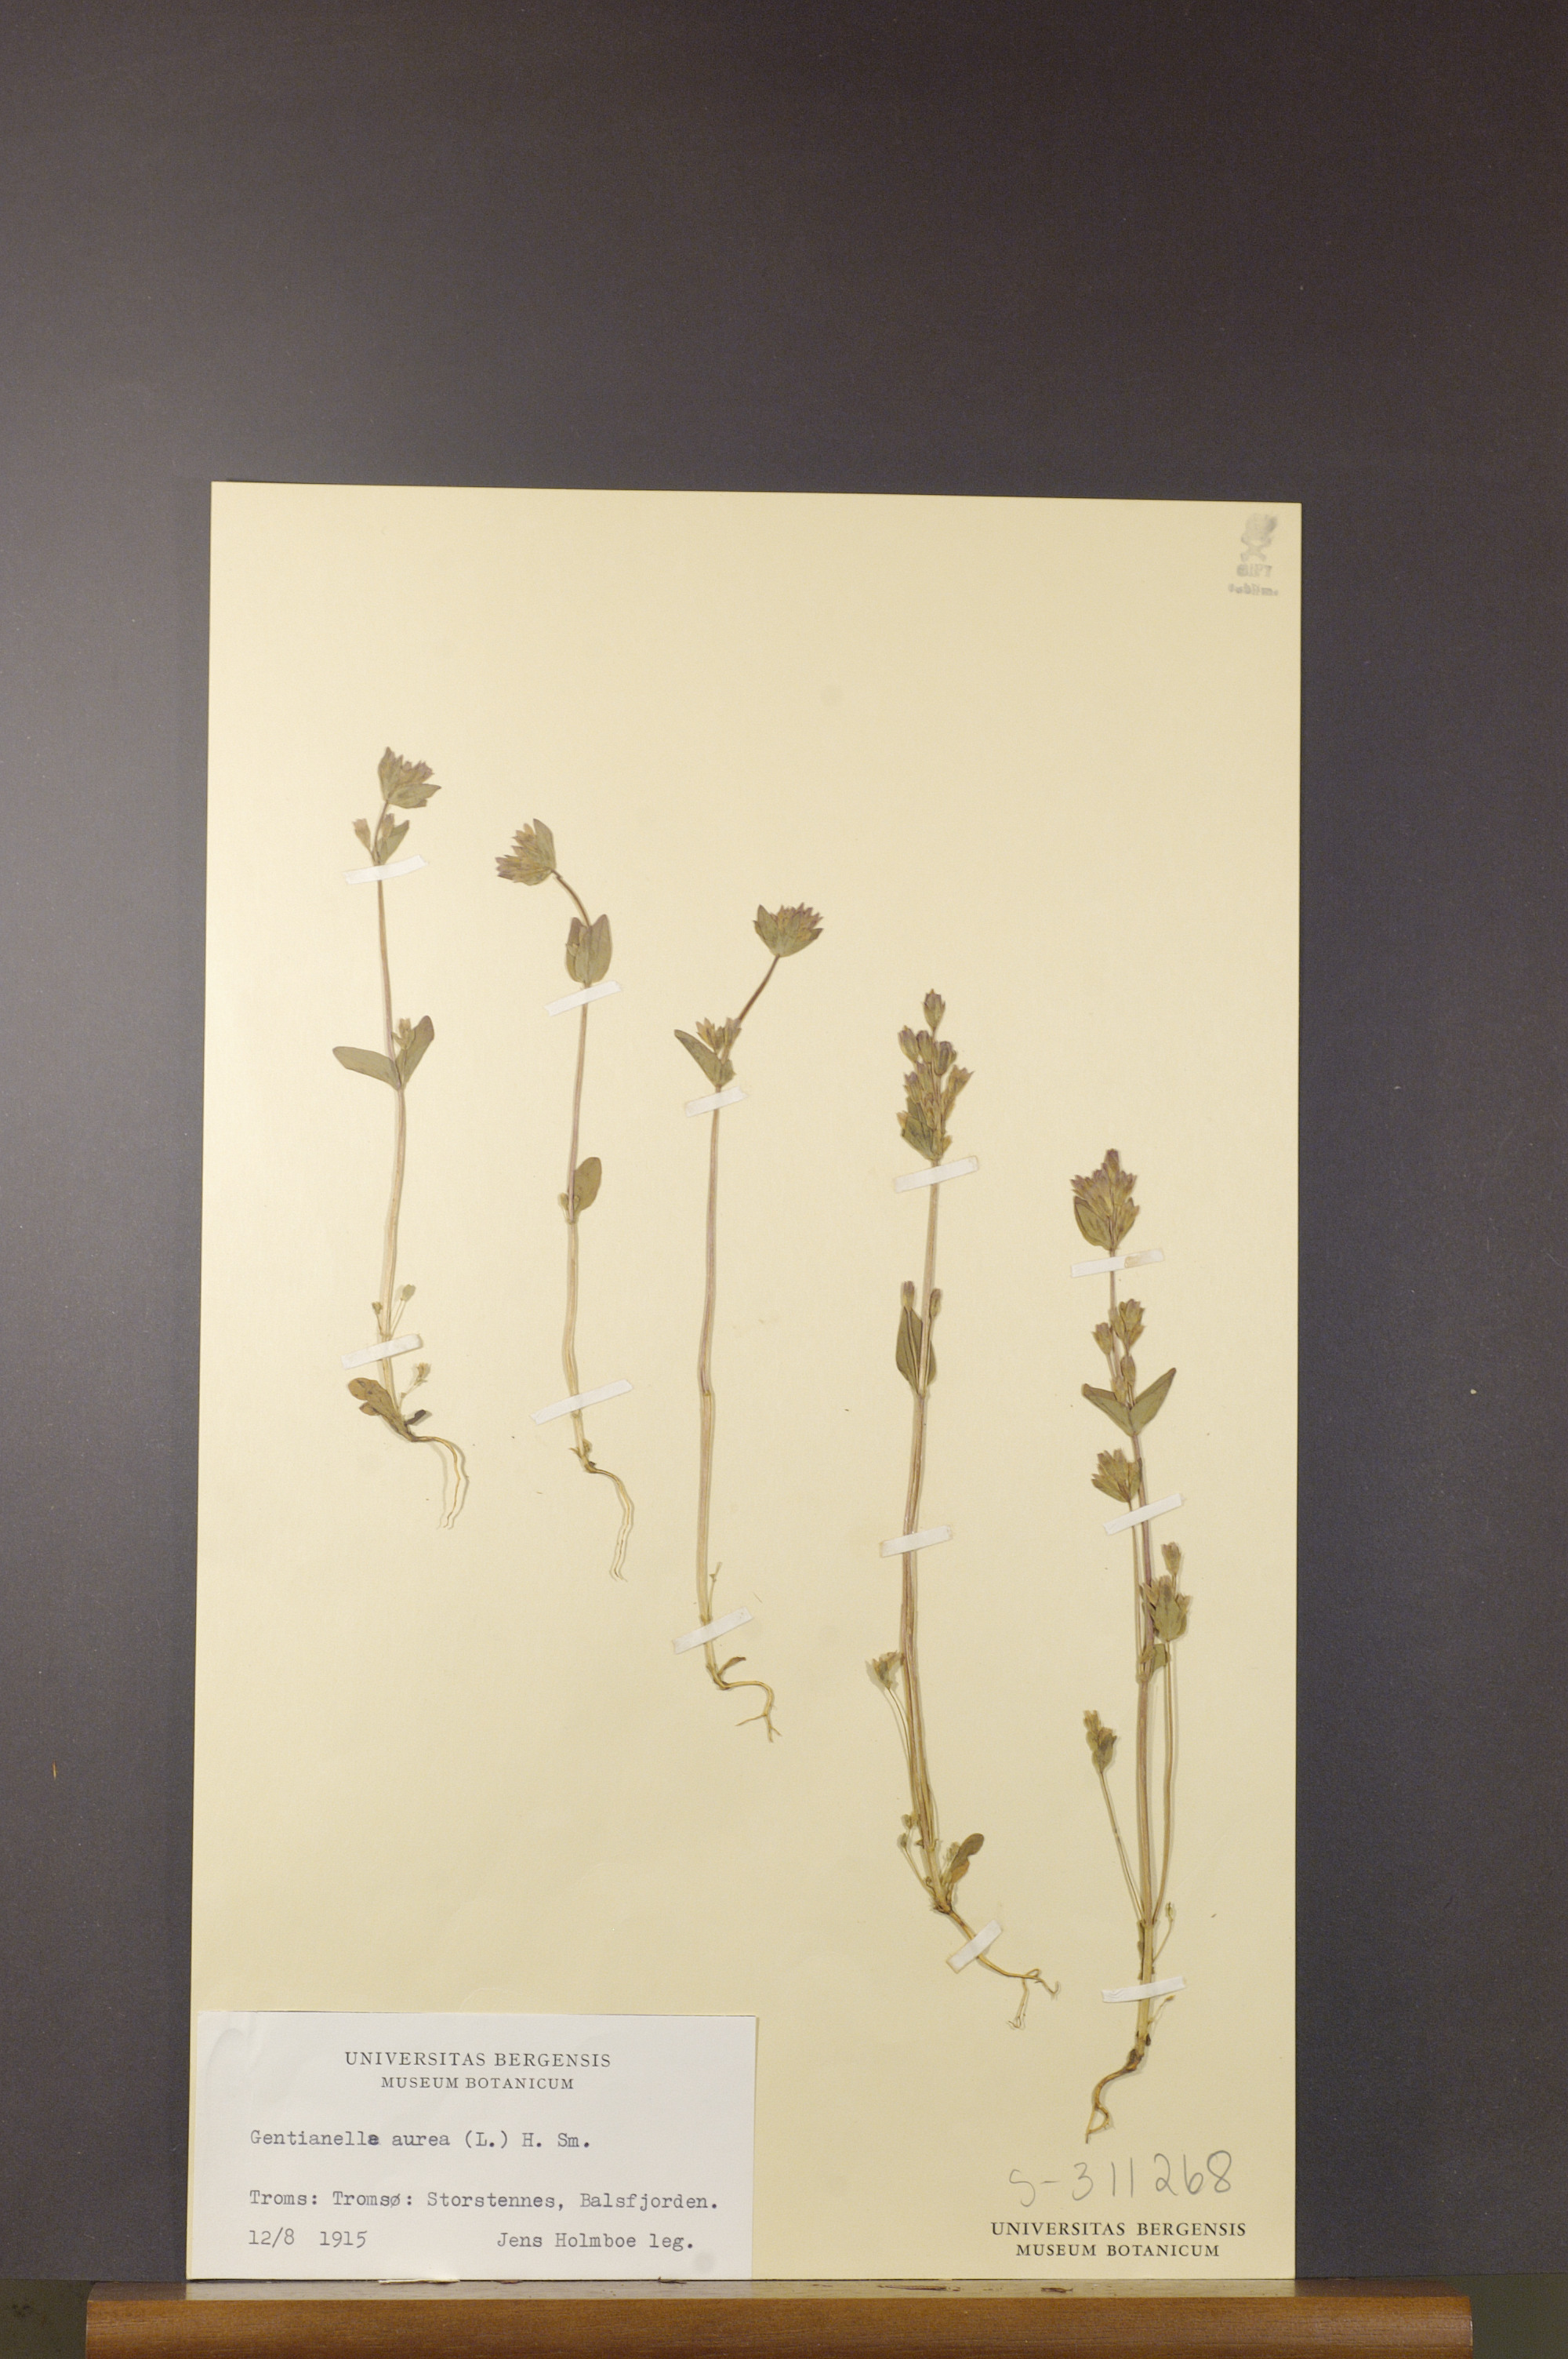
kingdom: Plantae
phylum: Tracheophyta
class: Magnoliopsida
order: Gentianales
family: Gentianaceae
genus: Gentianella
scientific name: Gentianella aurea
